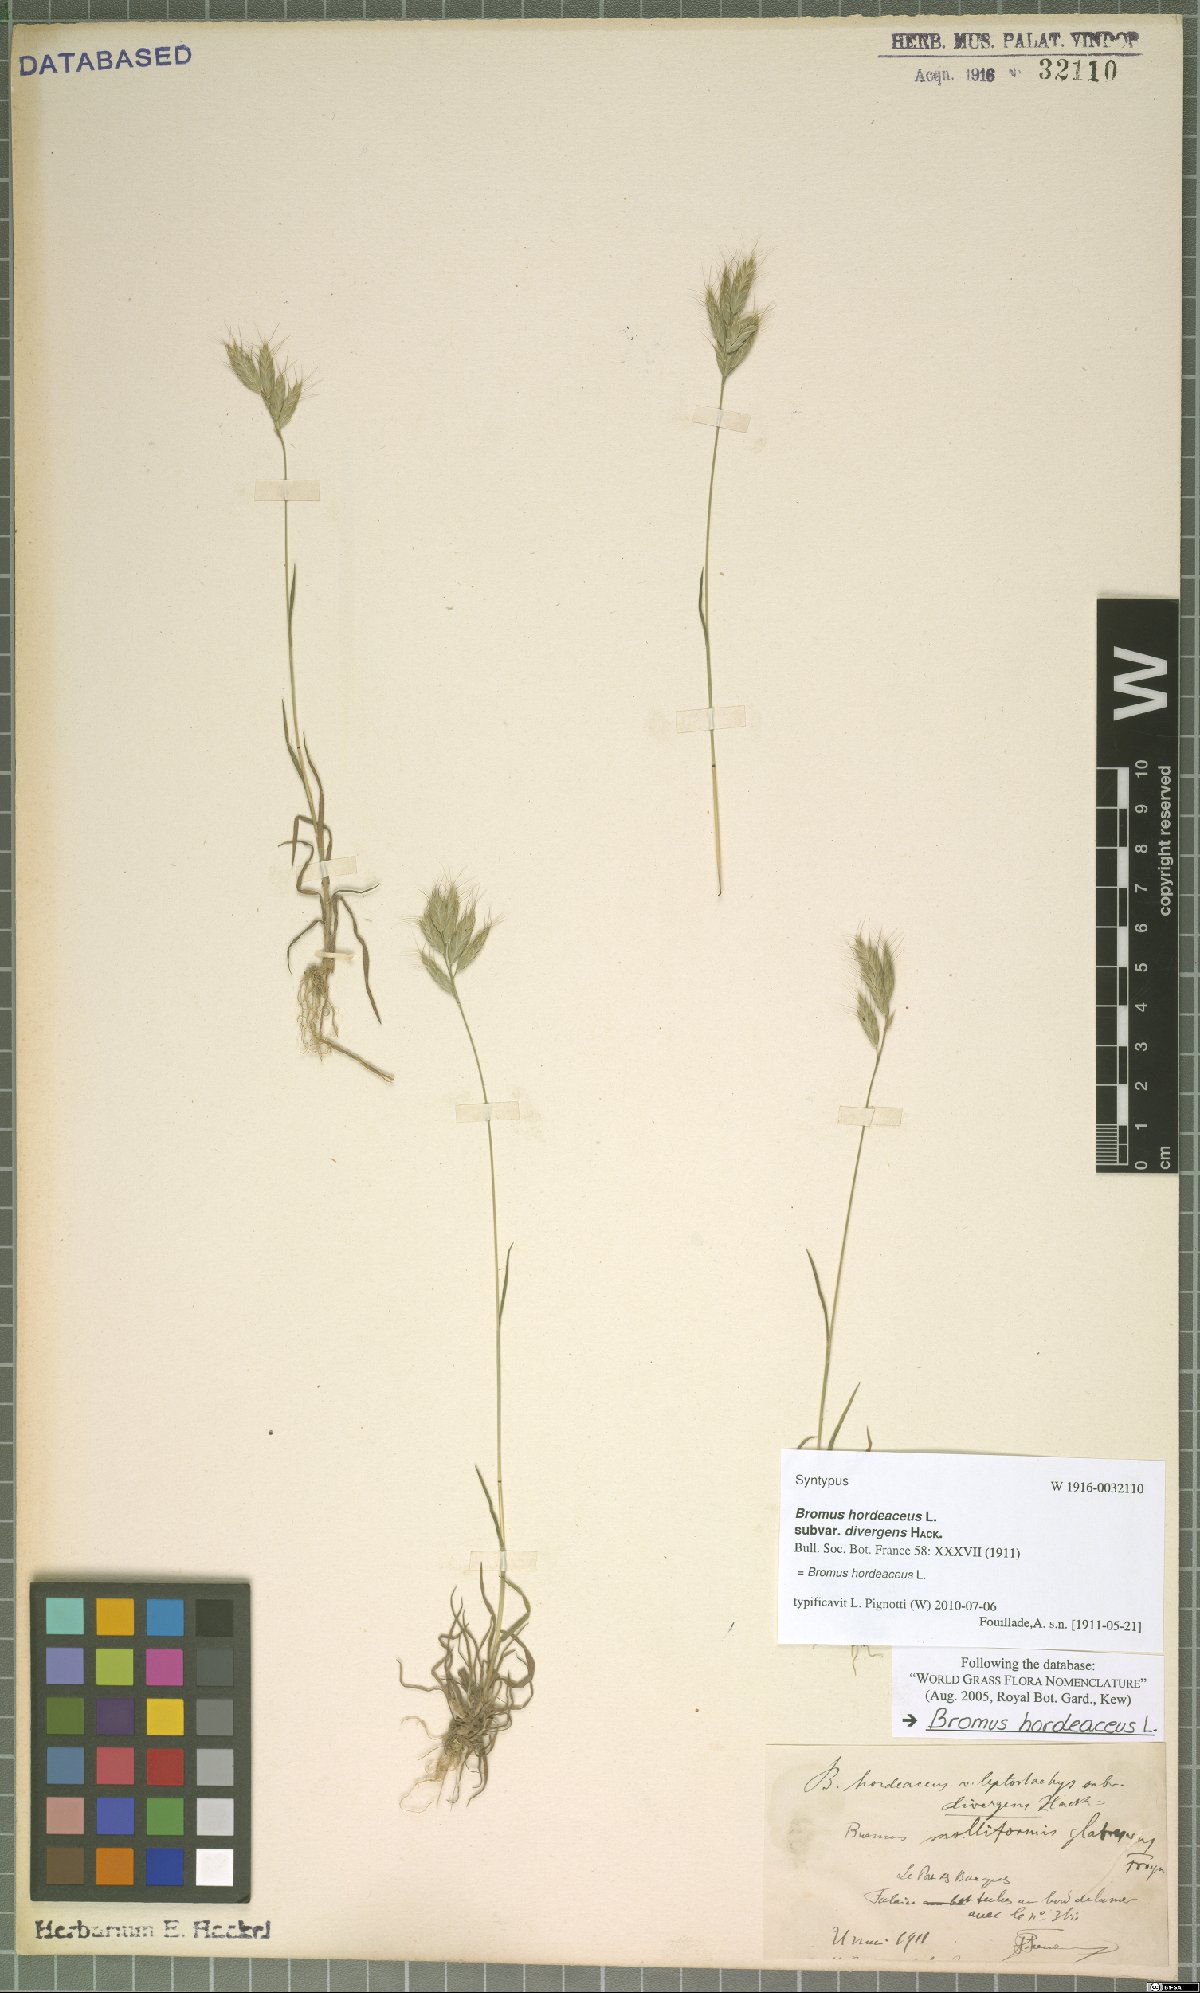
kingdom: Plantae
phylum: Tracheophyta
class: Liliopsida
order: Poales
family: Poaceae
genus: Bromus
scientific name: Bromus hordeaceus
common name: Soft brome
